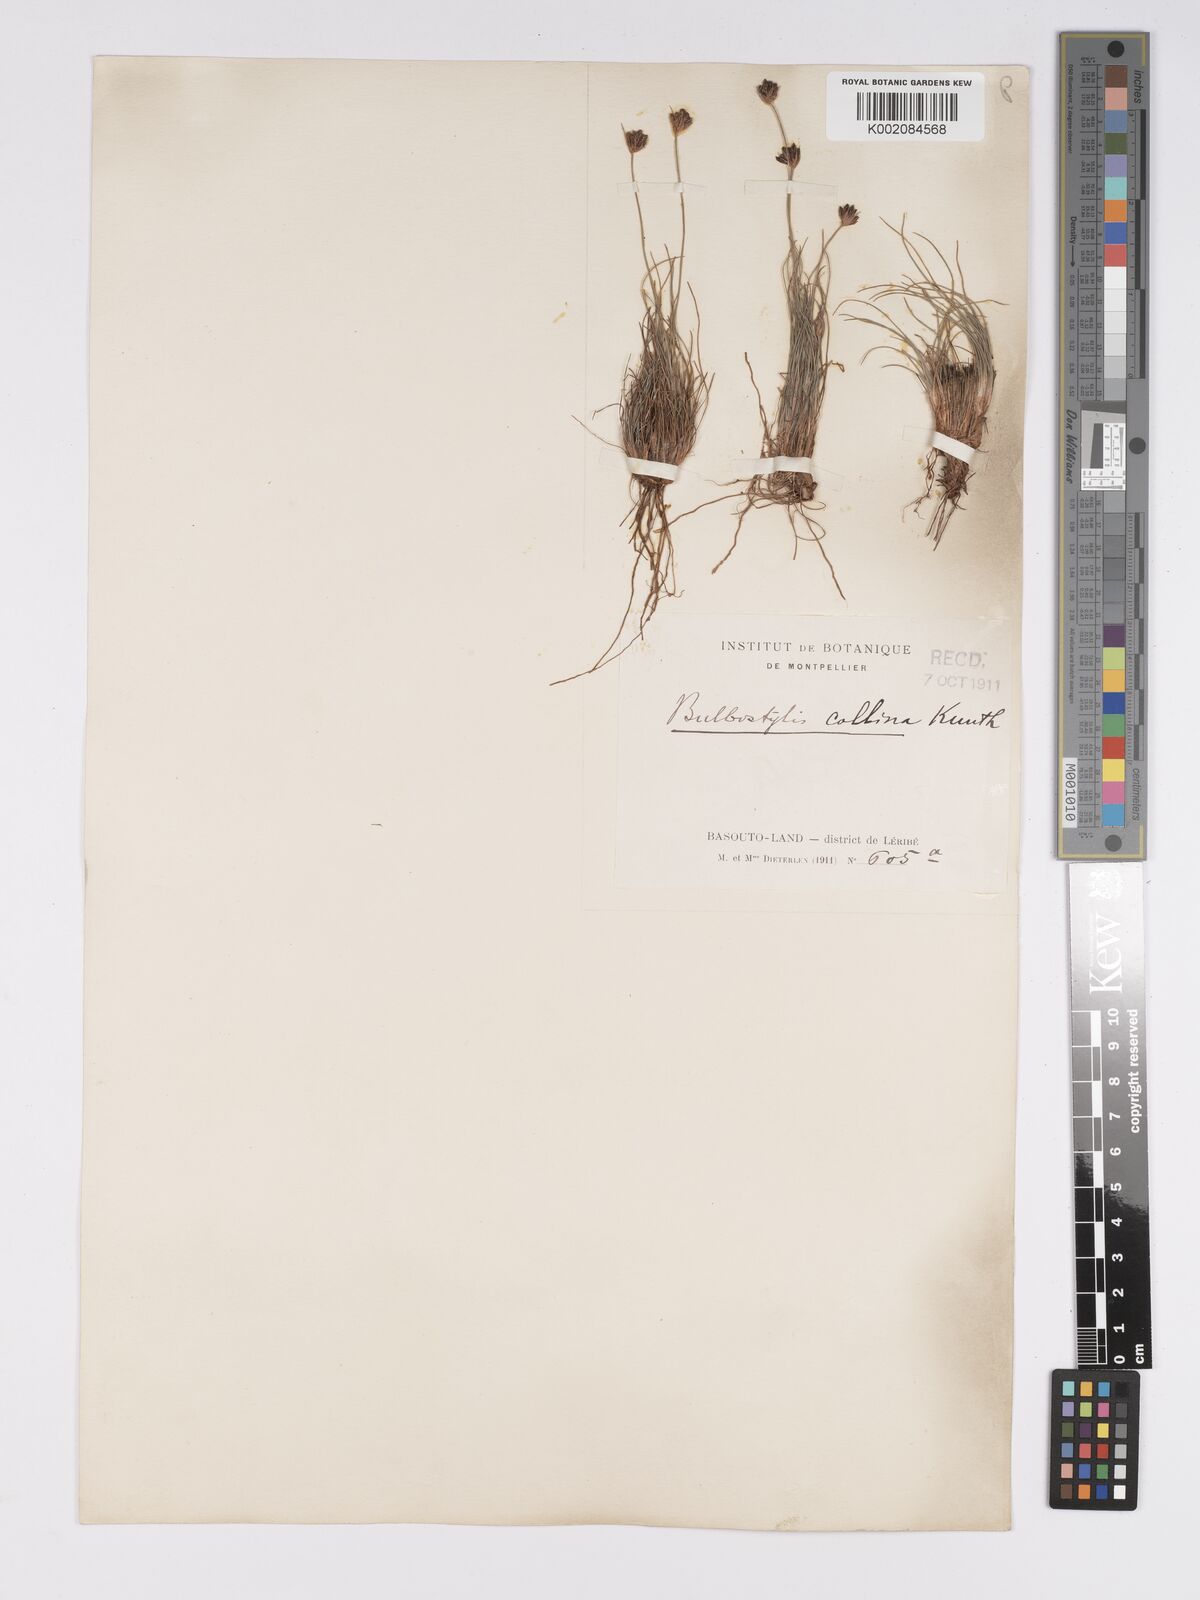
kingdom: Plantae
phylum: Tracheophyta
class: Liliopsida
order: Poales
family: Cyperaceae
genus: Bulbostylis
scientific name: Bulbostylis contexta
